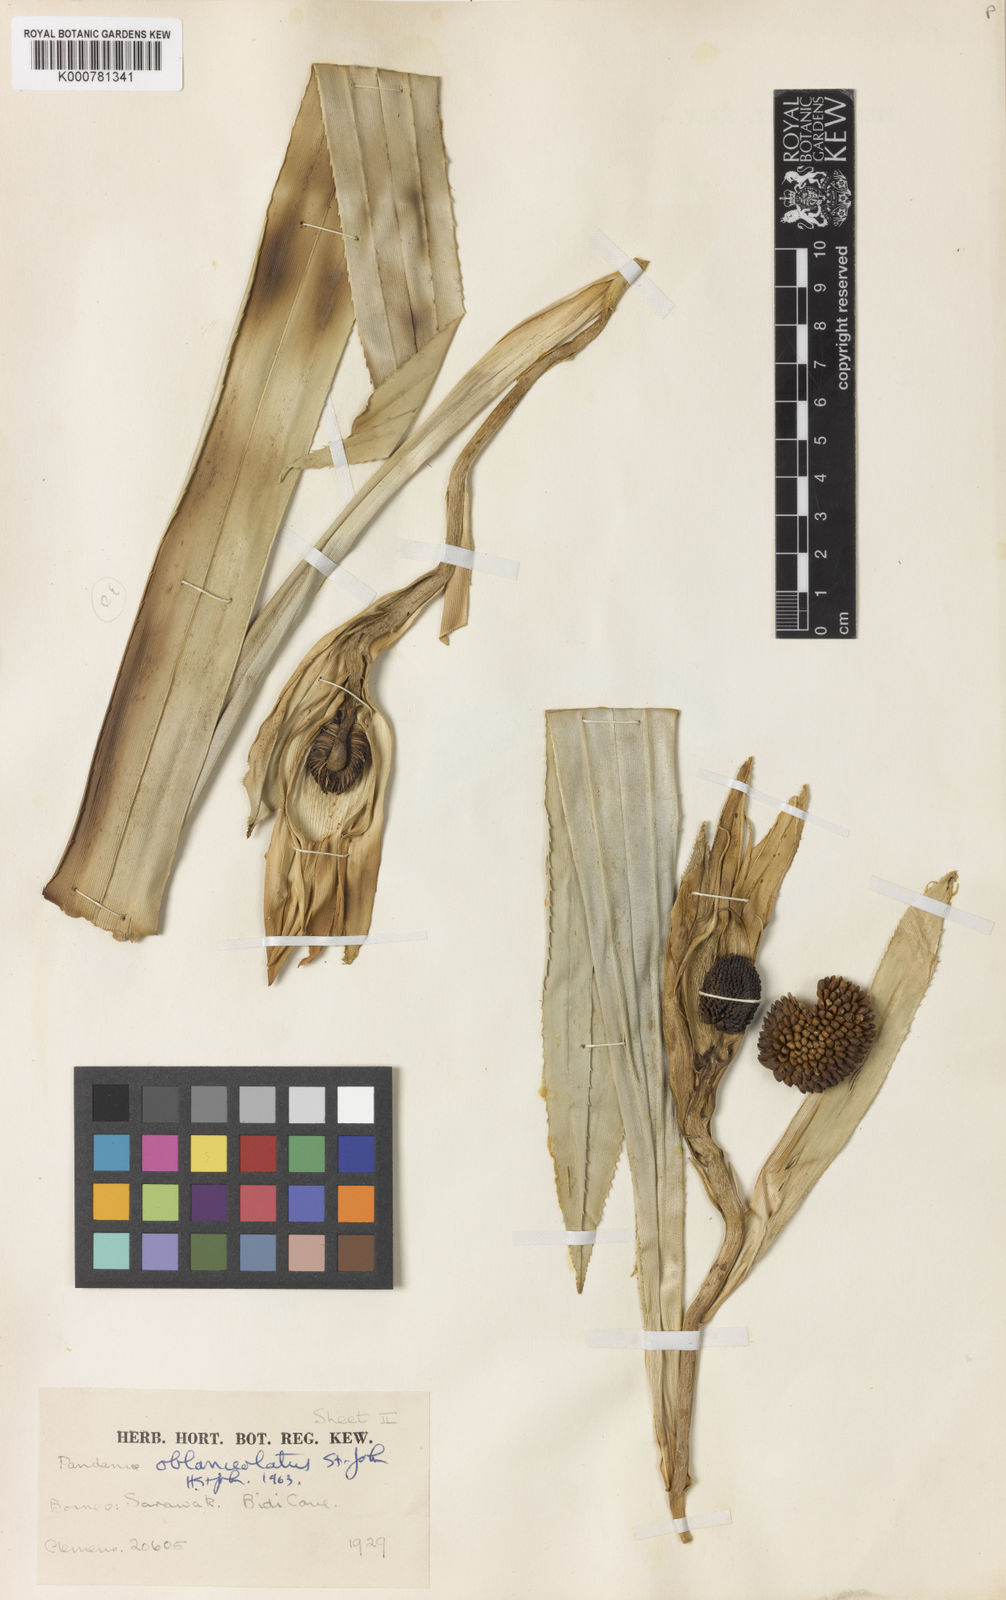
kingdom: Plantae
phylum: Tracheophyta
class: Liliopsida
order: Pandanales
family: Pandanaceae
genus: Pandanus
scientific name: Pandanus fusinus
